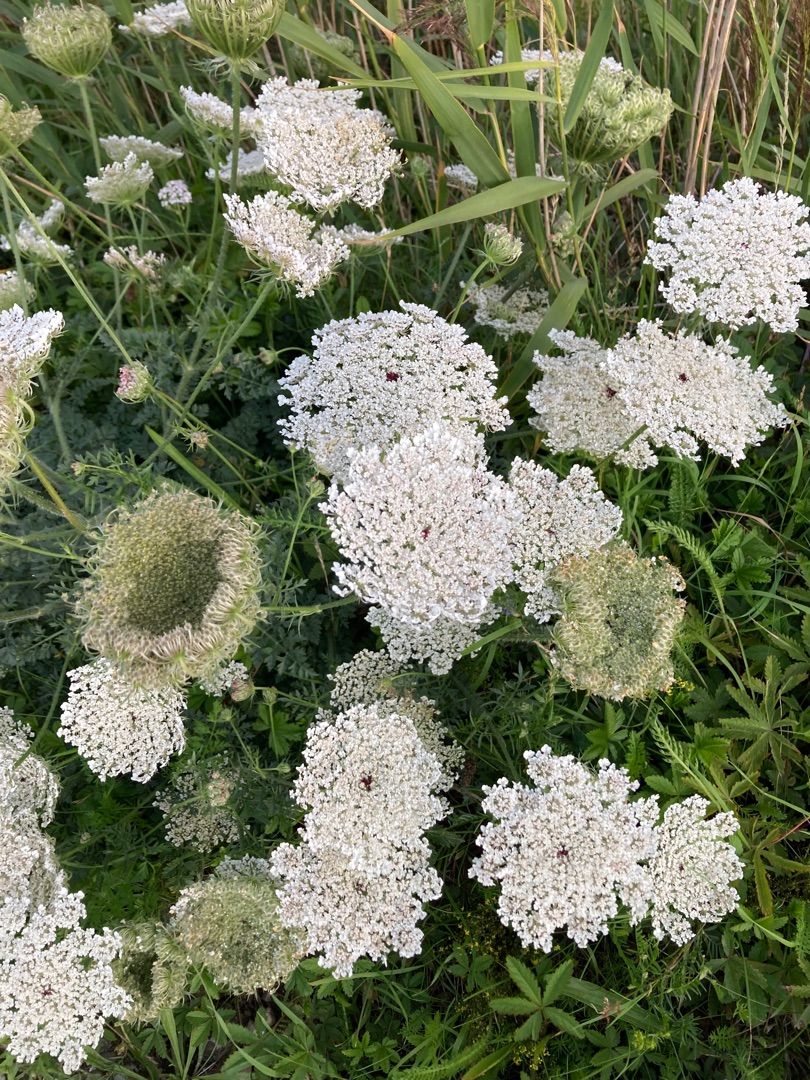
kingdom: Plantae
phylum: Tracheophyta
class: Magnoliopsida
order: Apiales
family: Apiaceae
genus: Daucus
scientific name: Daucus carota
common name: Vild gulerod
